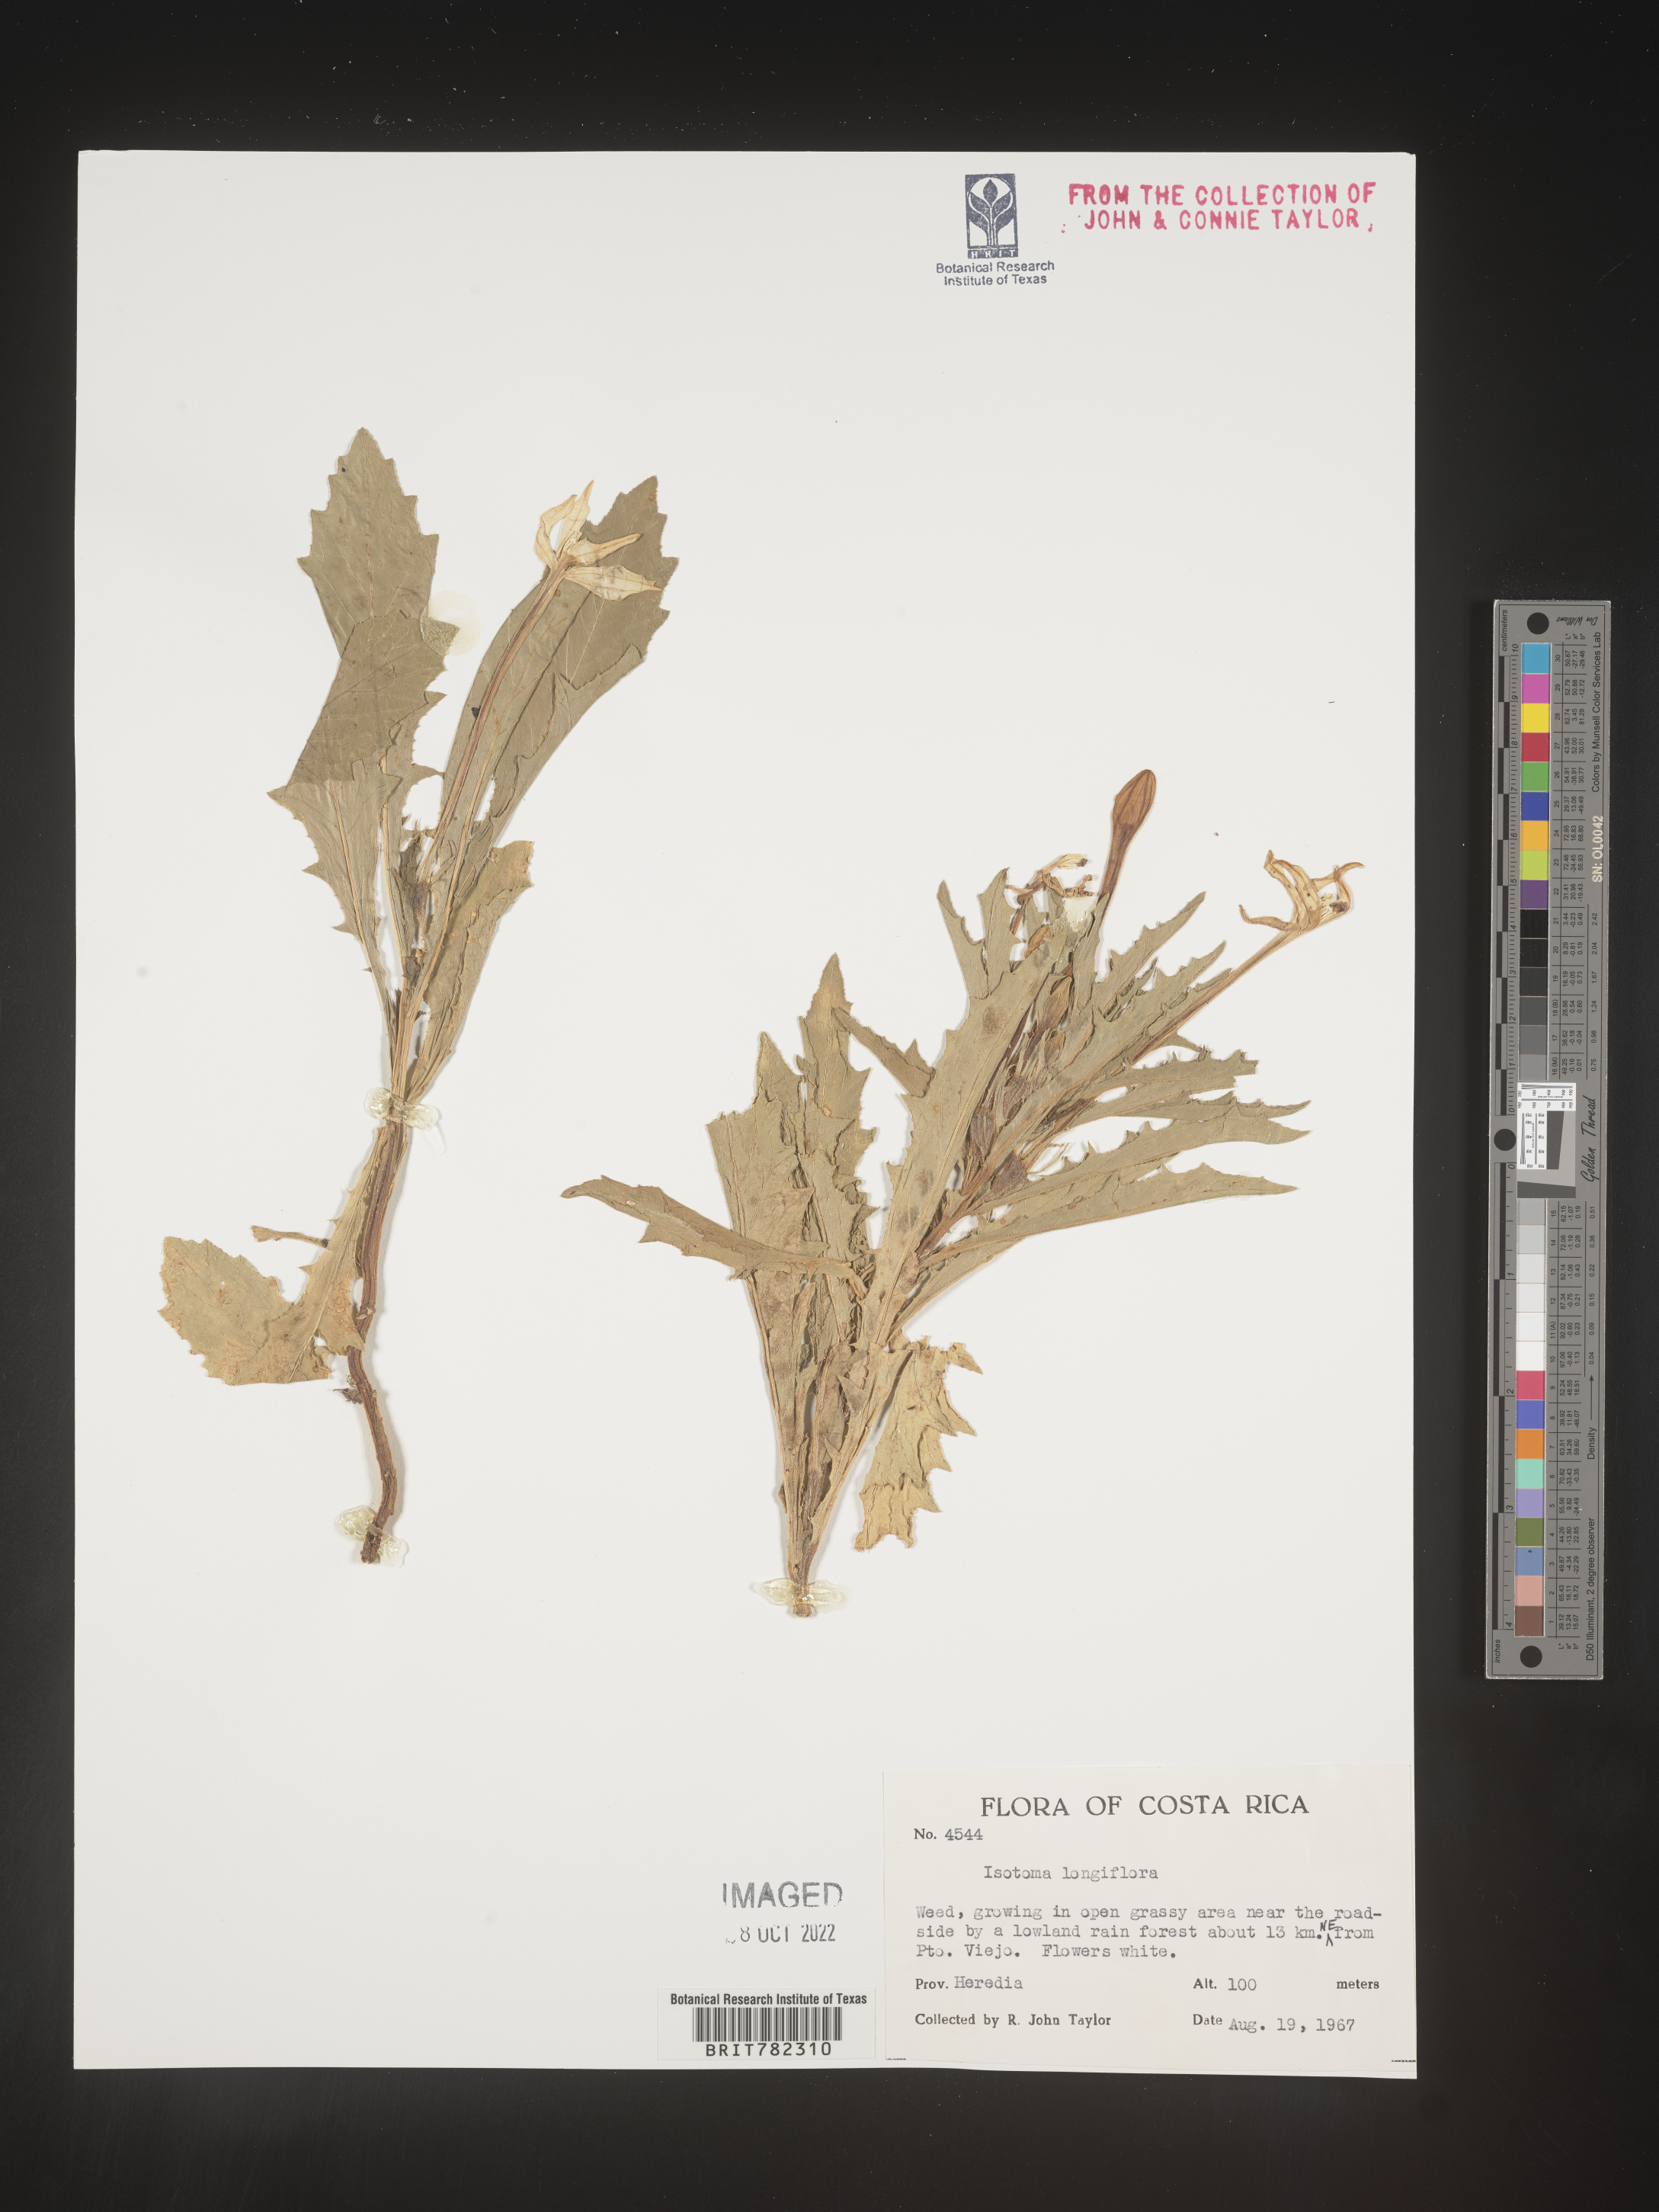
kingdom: Plantae
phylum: Tracheophyta
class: Magnoliopsida
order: Asterales
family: Campanulaceae
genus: Lobelia
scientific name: Lobelia Laurentia michelii
